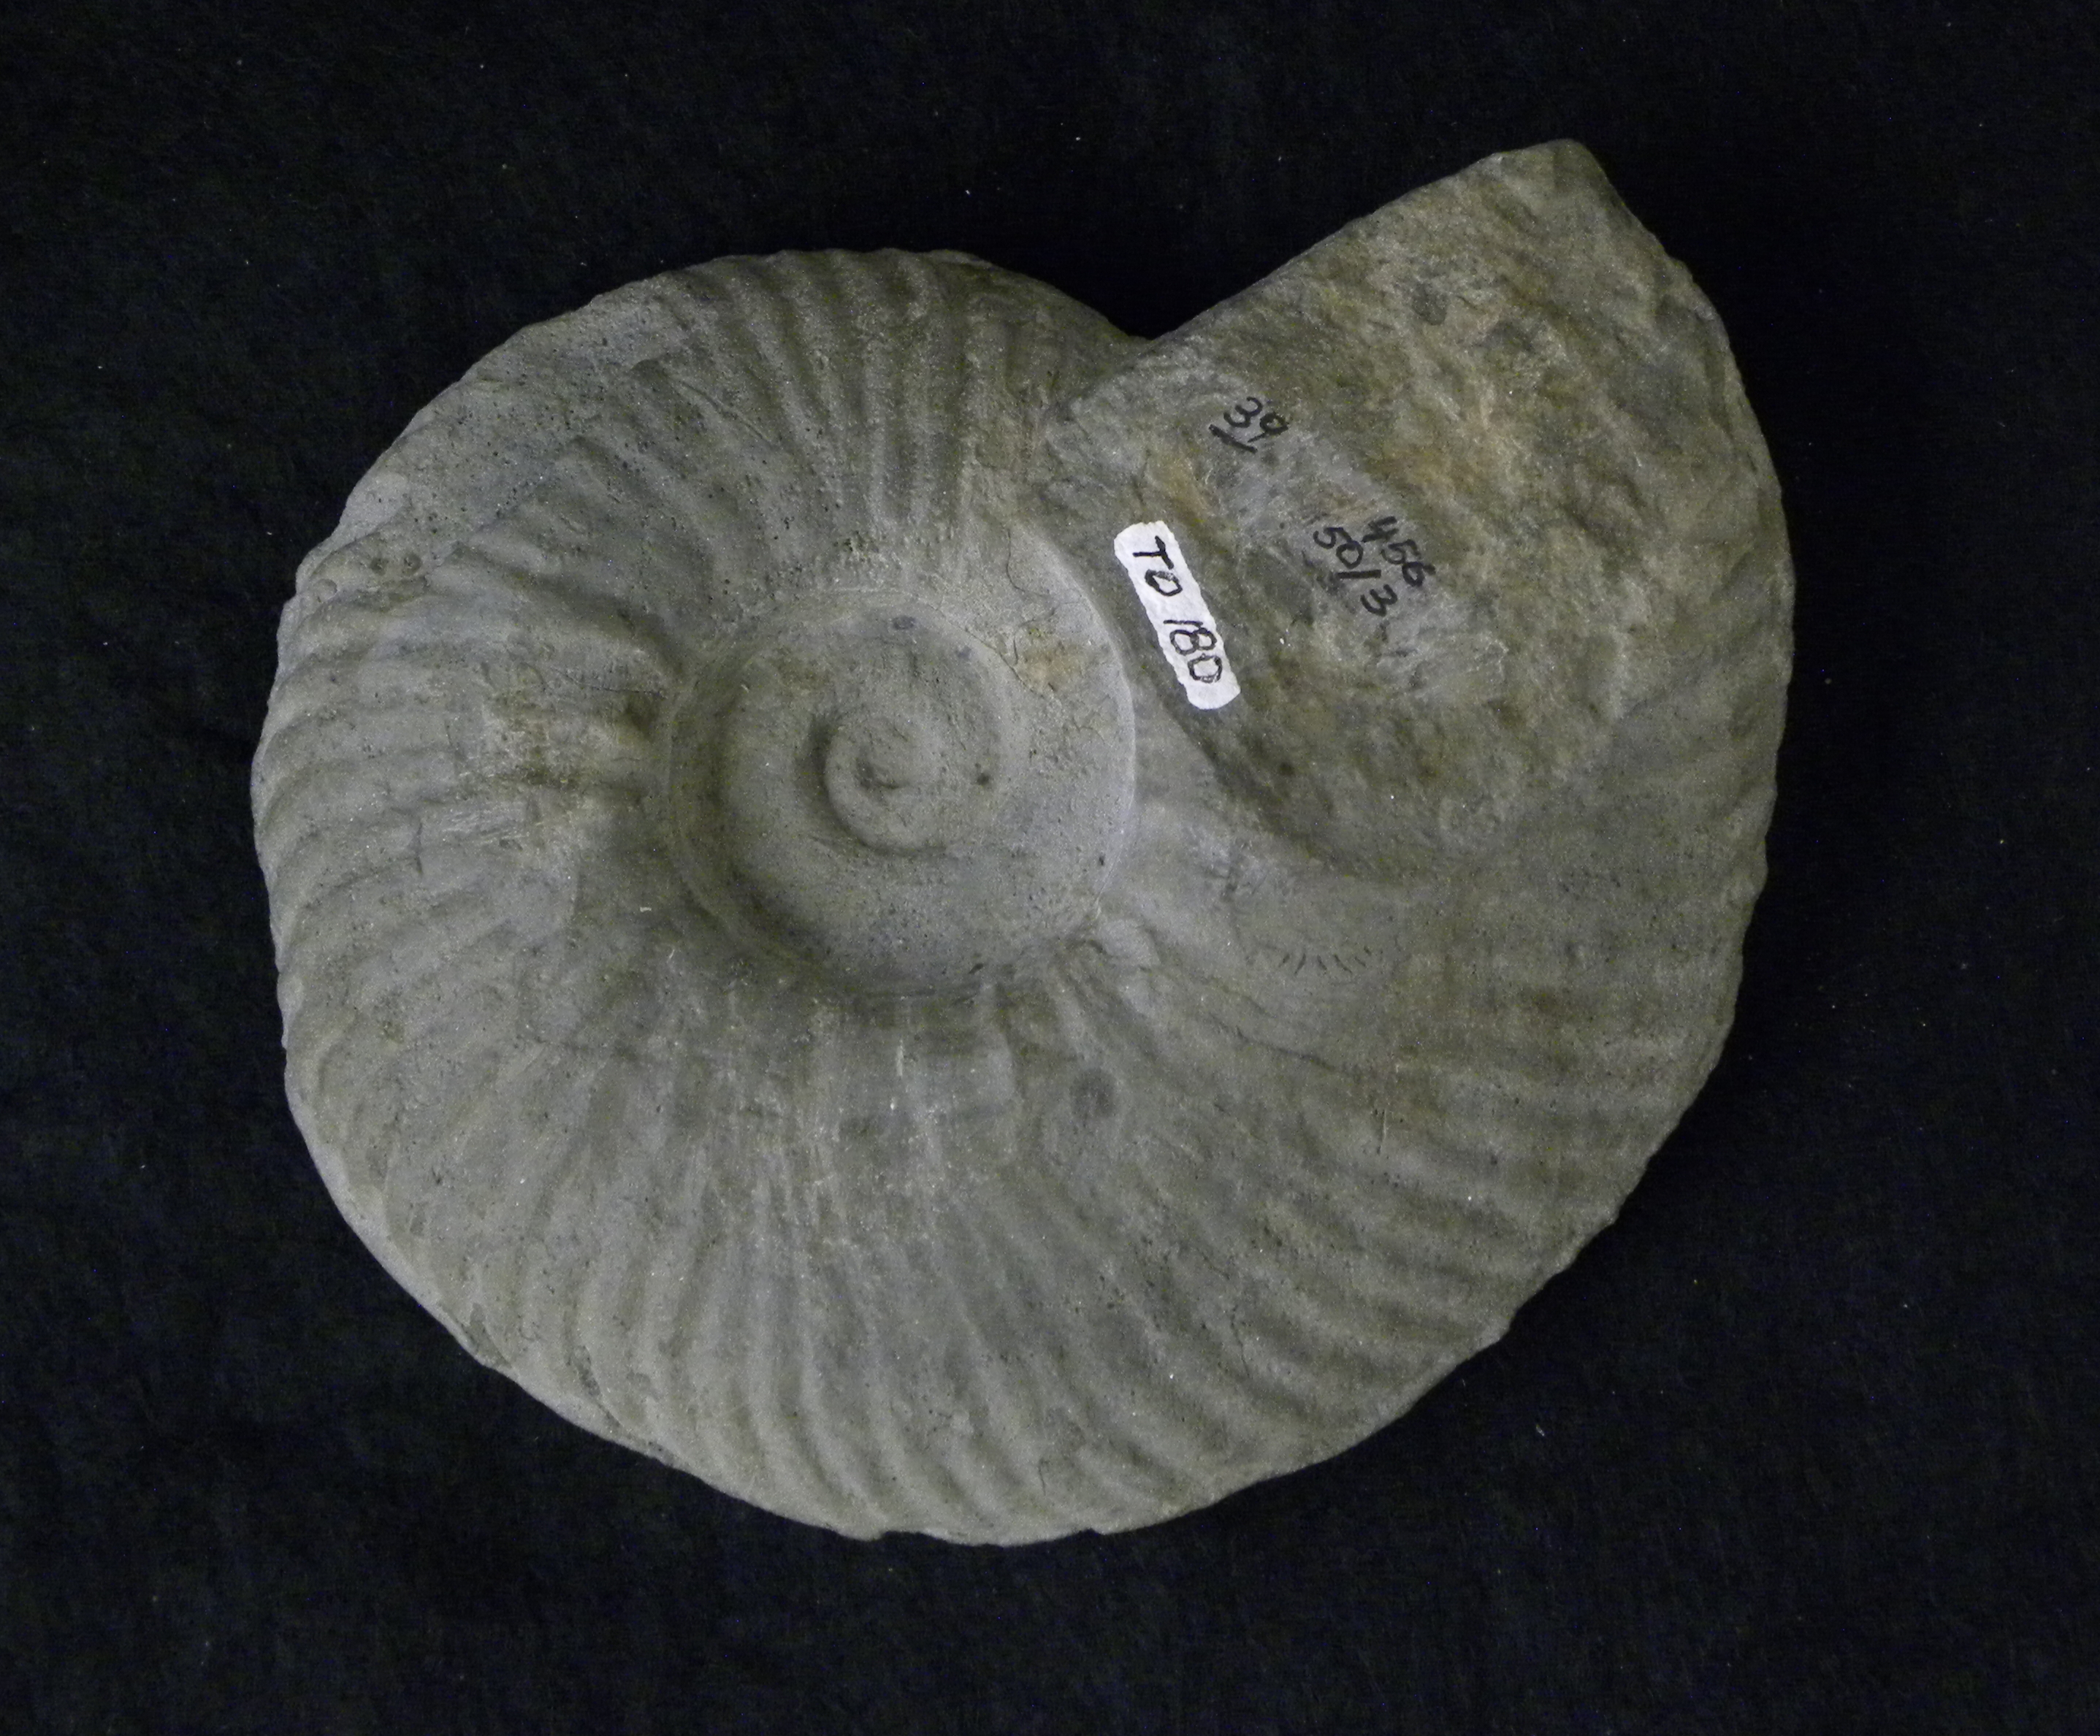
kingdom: Animalia
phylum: Mollusca
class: Cephalopoda
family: Hammatoceratidae
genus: Planammatoceras
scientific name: Planammatoceras
